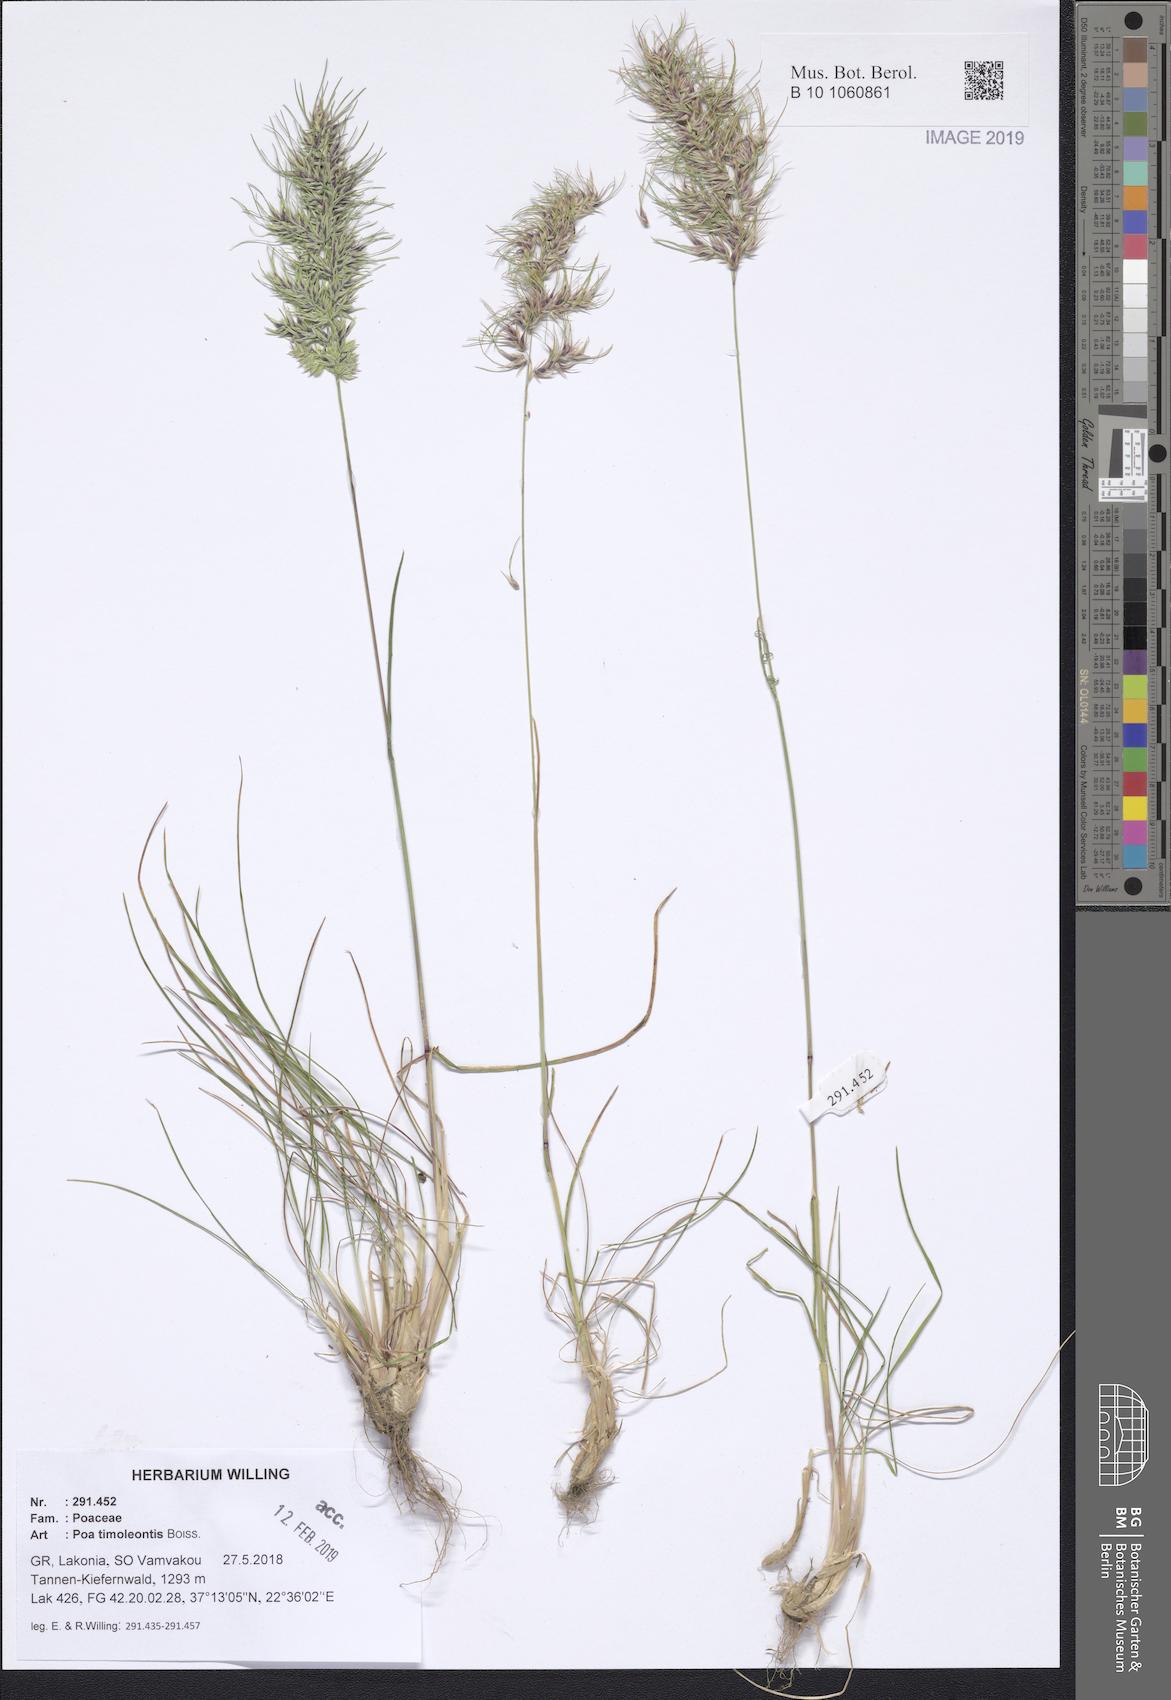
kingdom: Plantae
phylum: Tracheophyta
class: Liliopsida
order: Poales
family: Poaceae
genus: Poa
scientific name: Poa timoleontis
